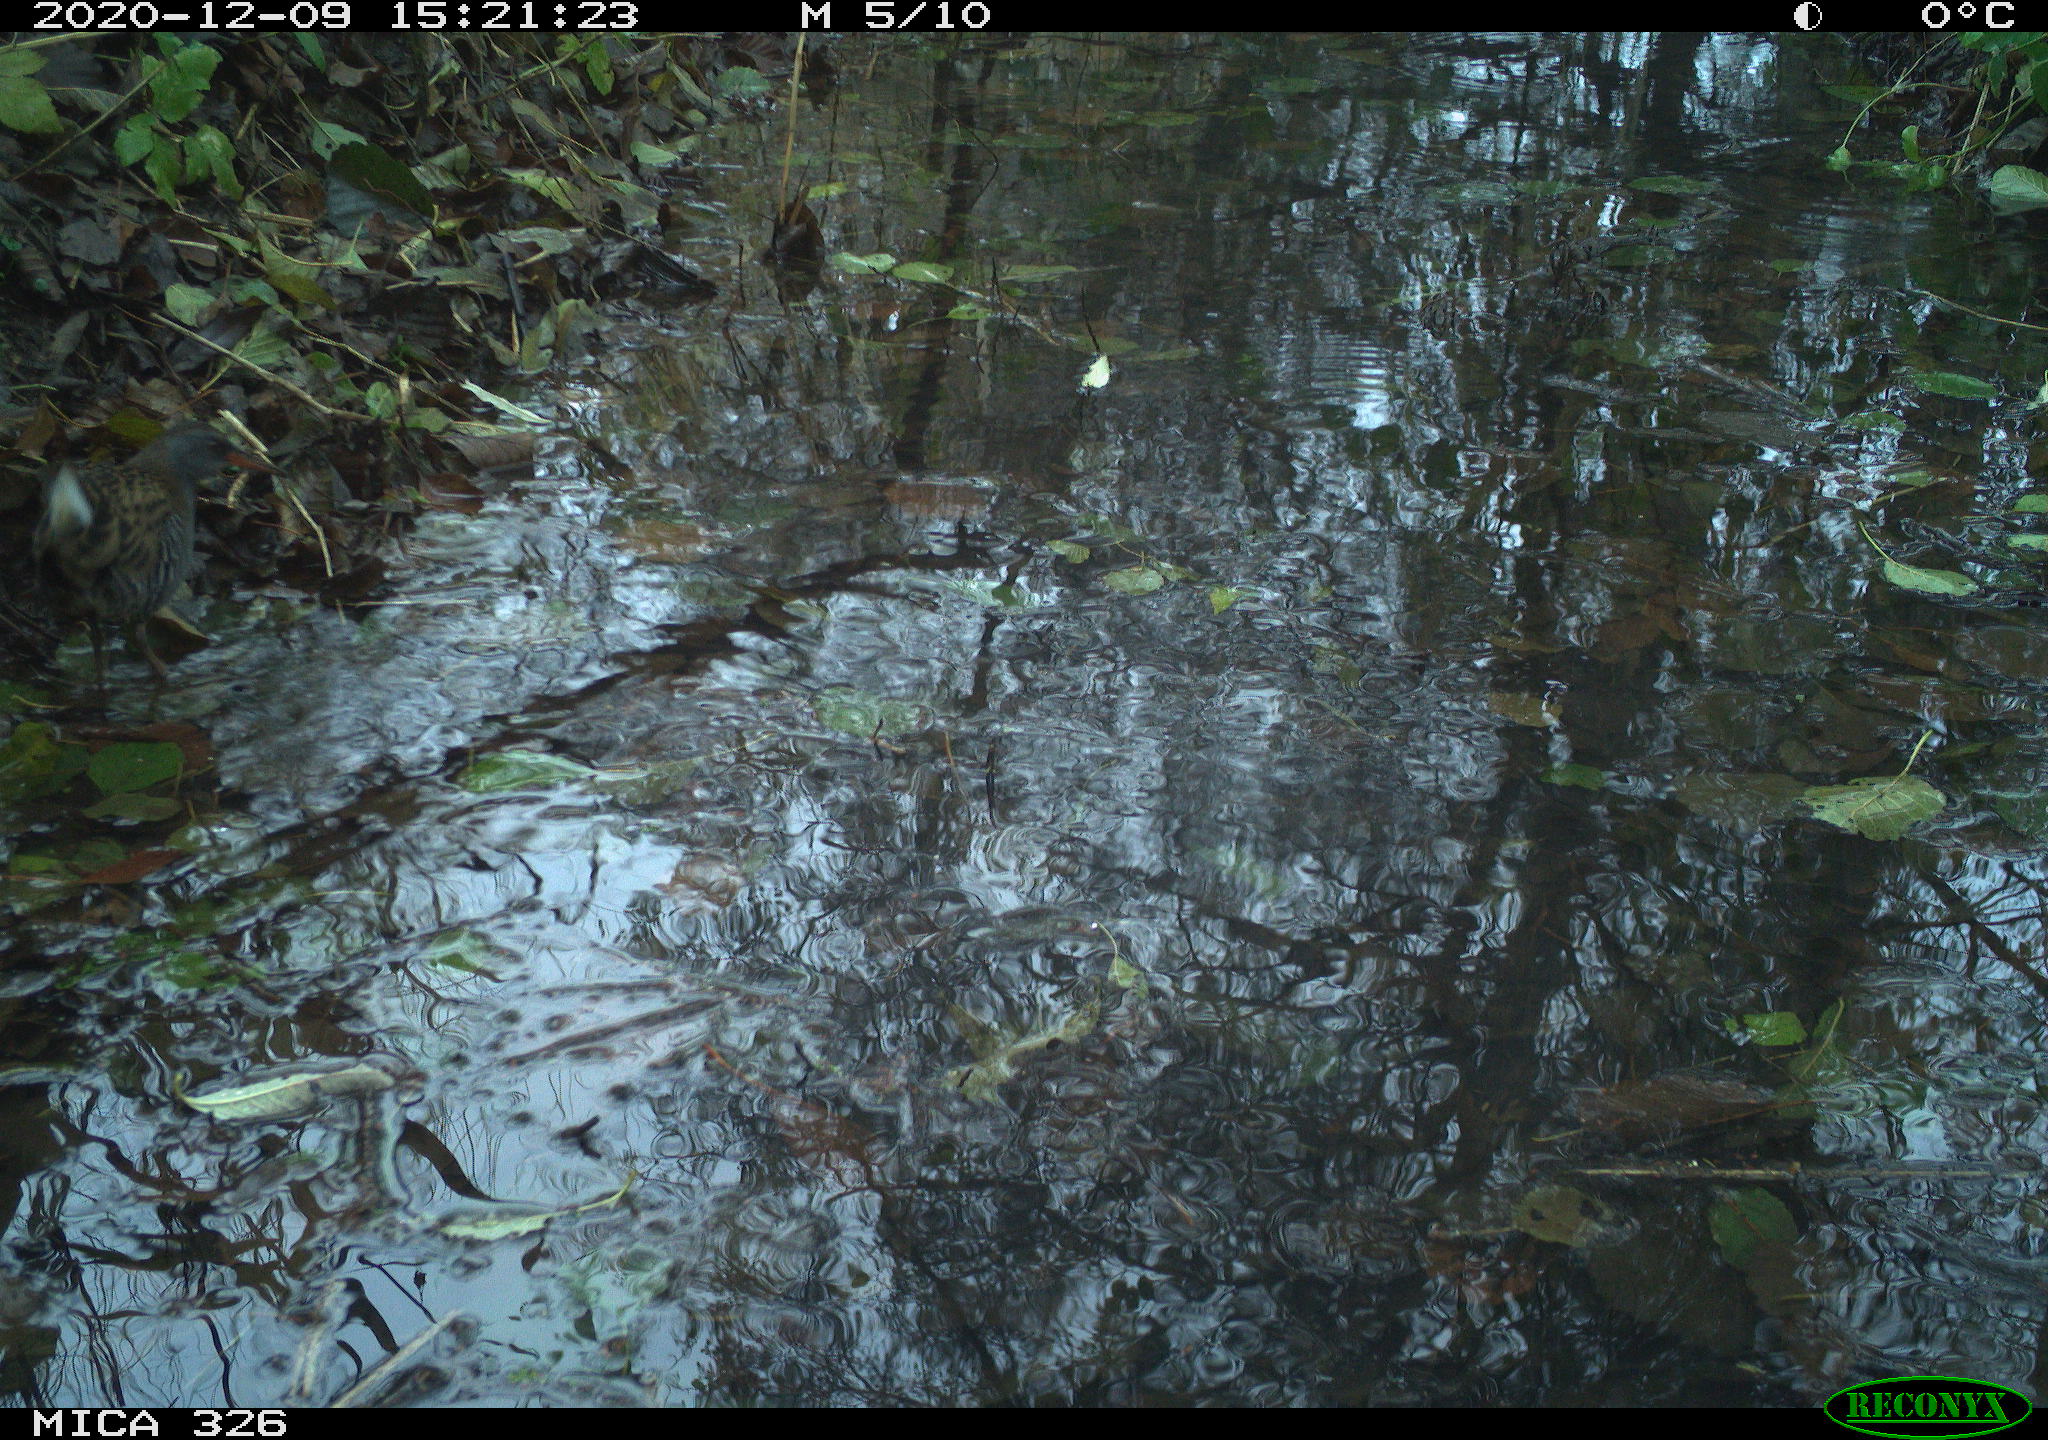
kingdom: Animalia
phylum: Chordata
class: Aves
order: Gruiformes
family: Rallidae
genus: Rallus
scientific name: Rallus aquaticus
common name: Water rail
